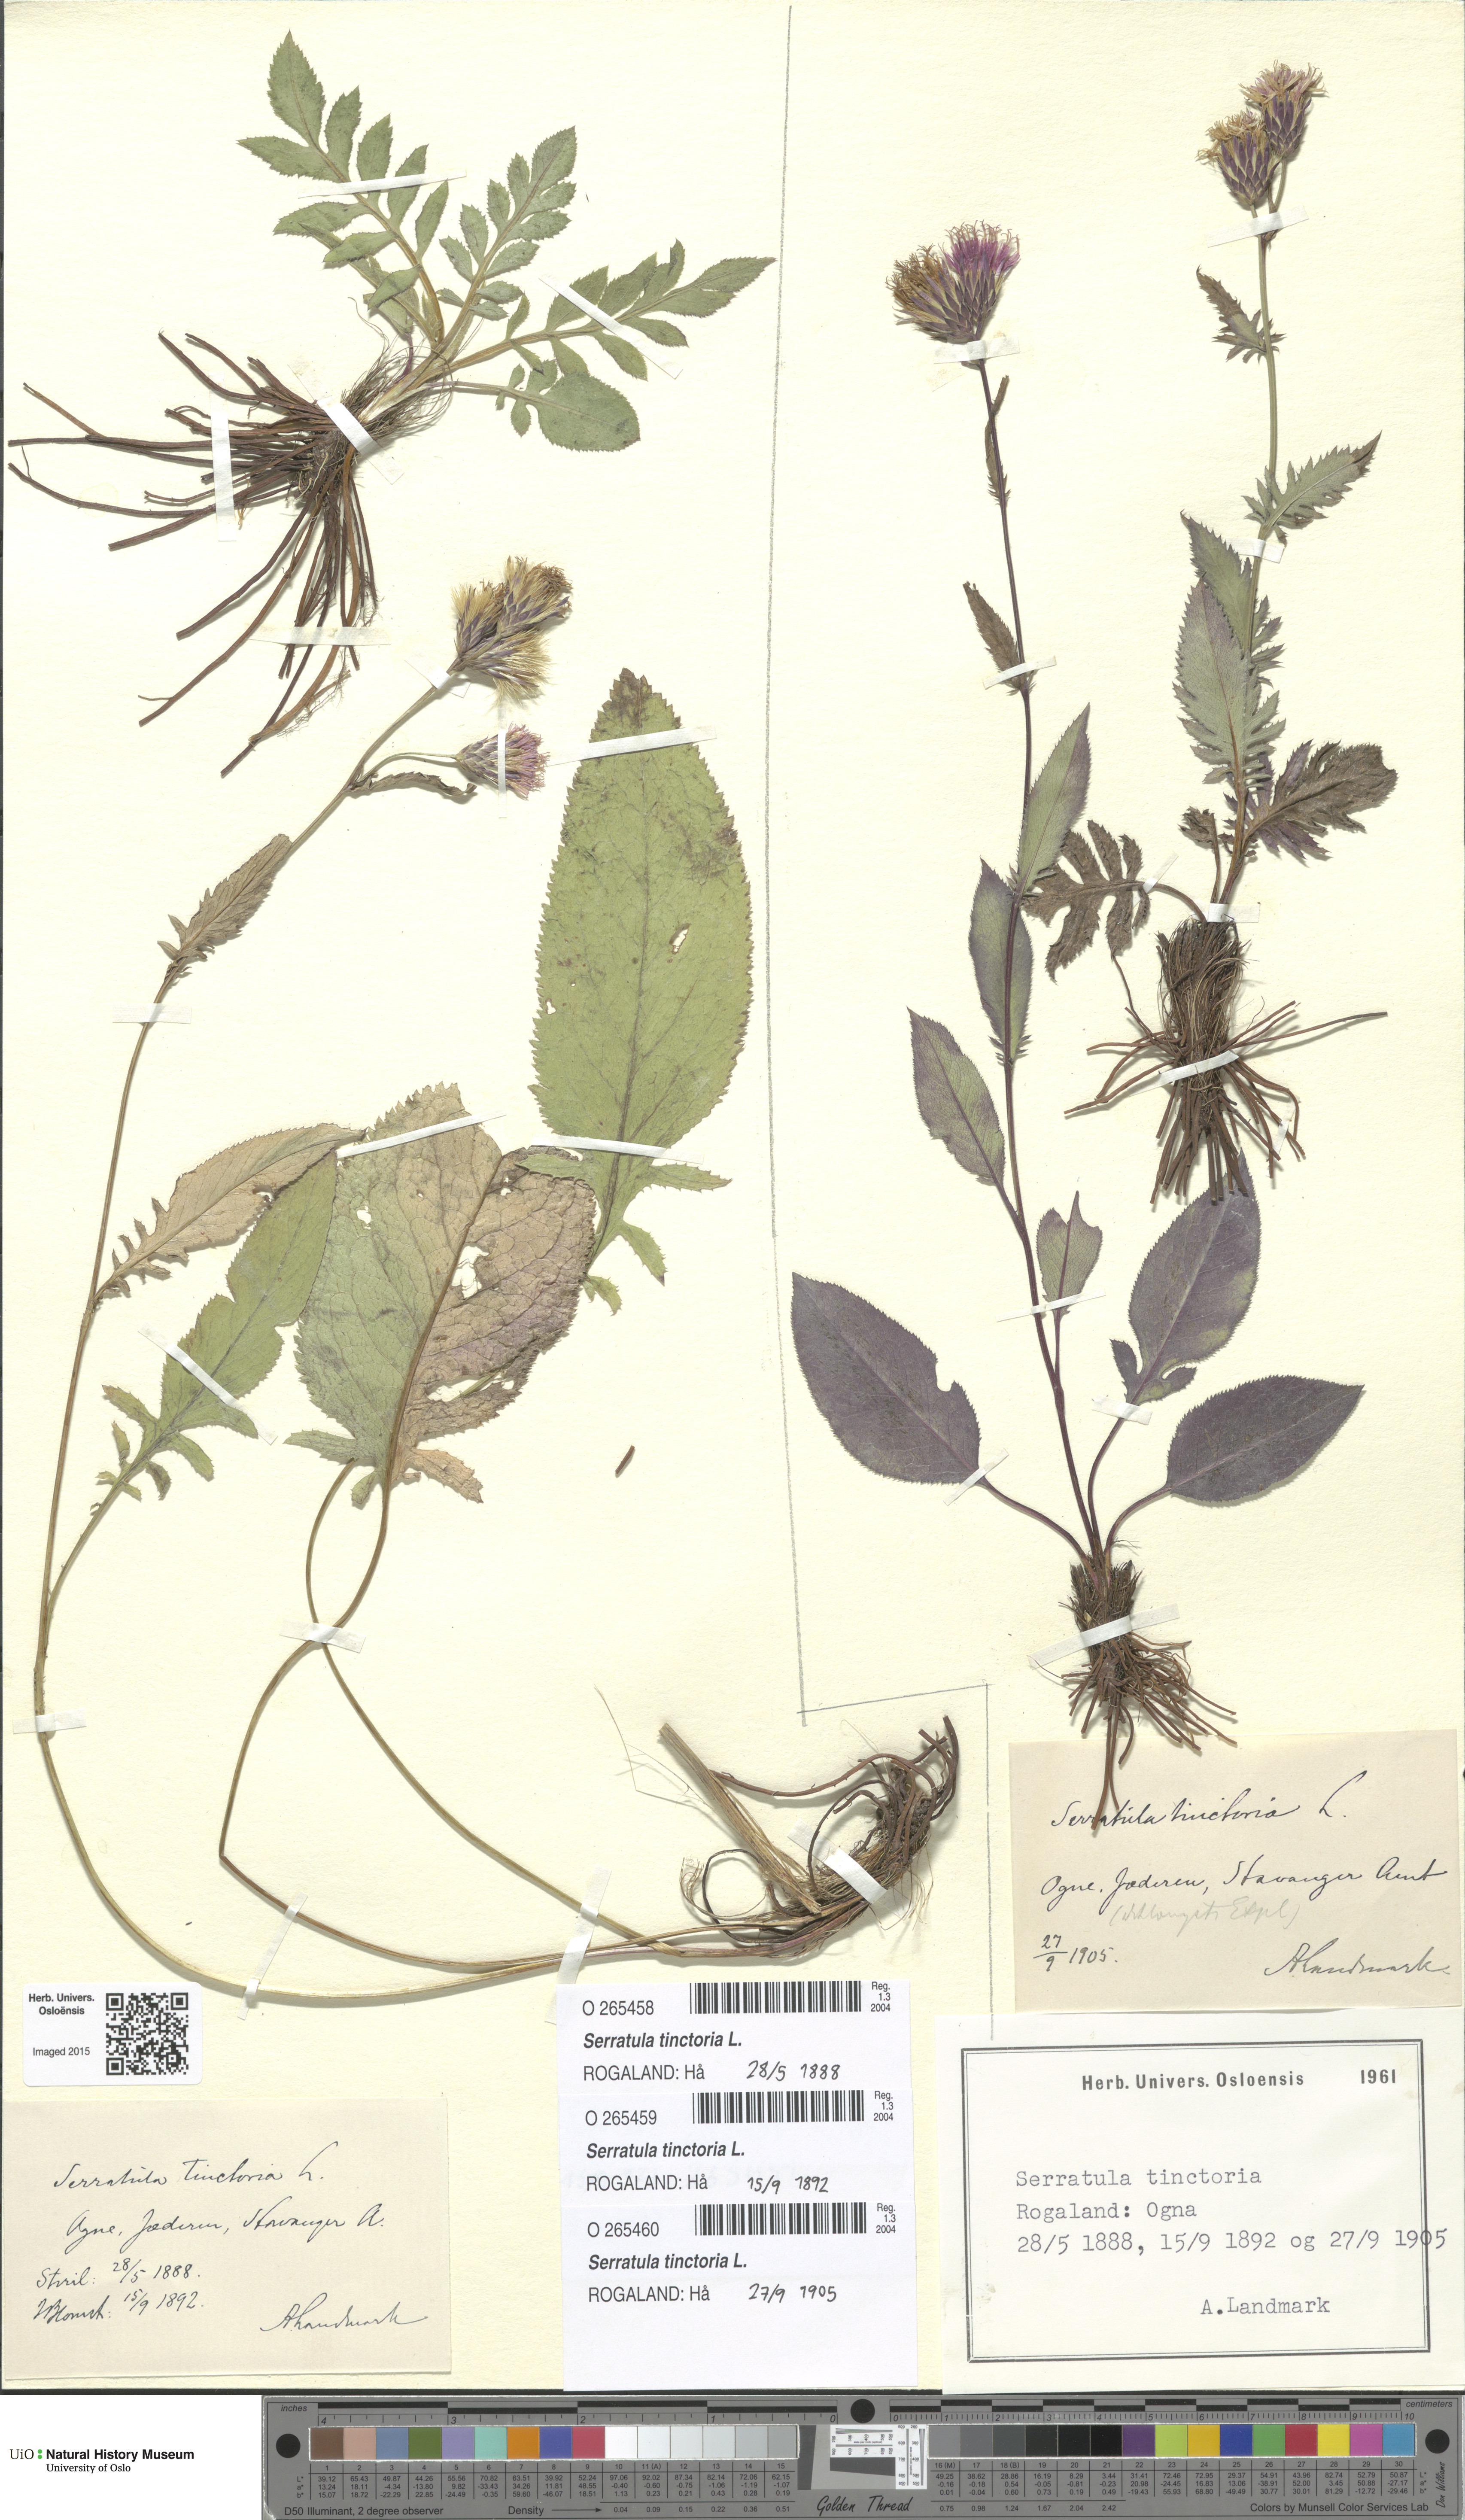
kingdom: Plantae
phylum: Tracheophyta
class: Magnoliopsida
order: Asterales
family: Asteraceae
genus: Serratula
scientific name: Serratula tinctoria
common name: Saw-wort
